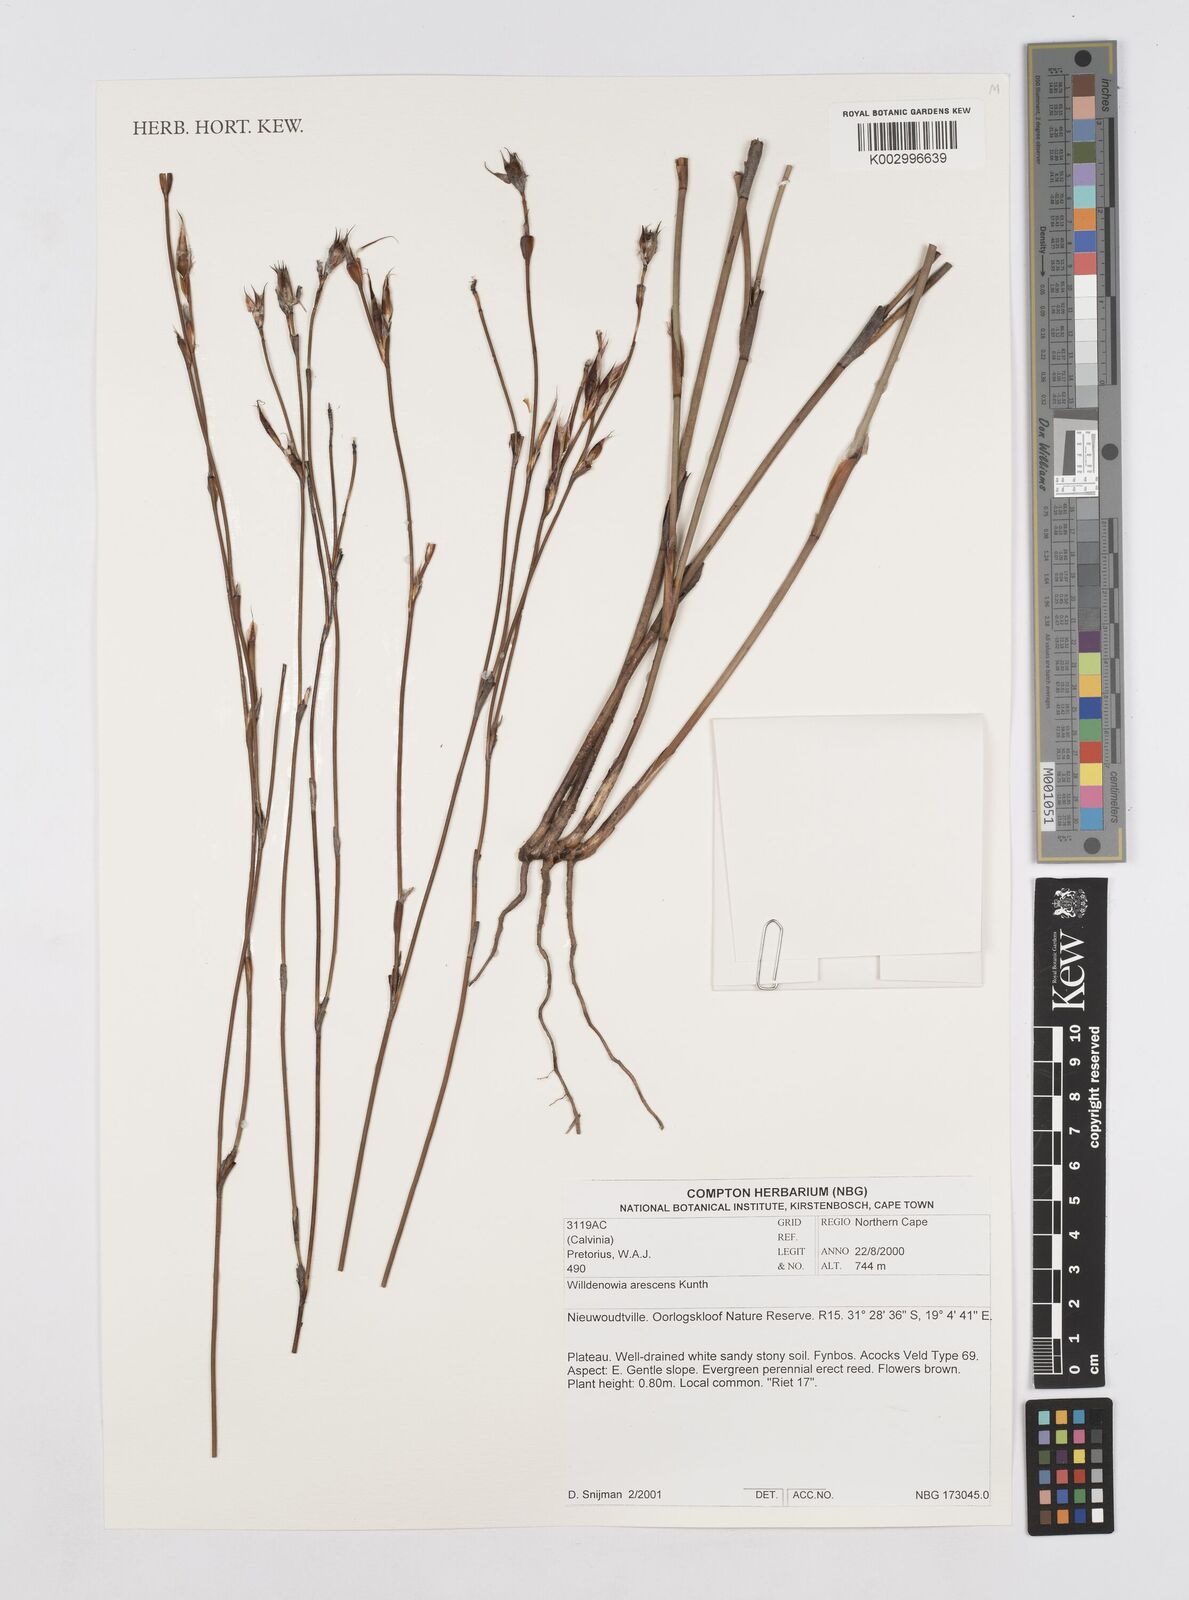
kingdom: Plantae
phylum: Tracheophyta
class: Liliopsida
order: Poales
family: Restionaceae
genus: Willdenowia
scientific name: Willdenowia arescens
